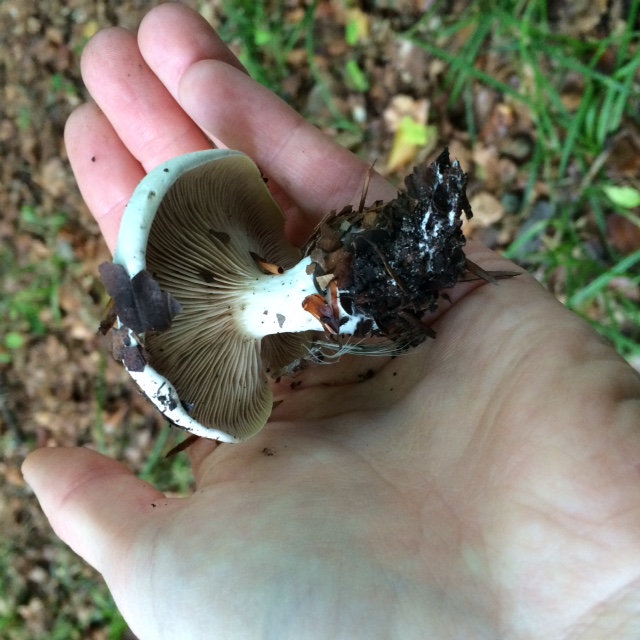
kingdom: Fungi
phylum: Basidiomycota
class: Agaricomycetes
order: Agaricales
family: Entolomataceae
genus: Clitopilus
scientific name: Clitopilus prunulus
